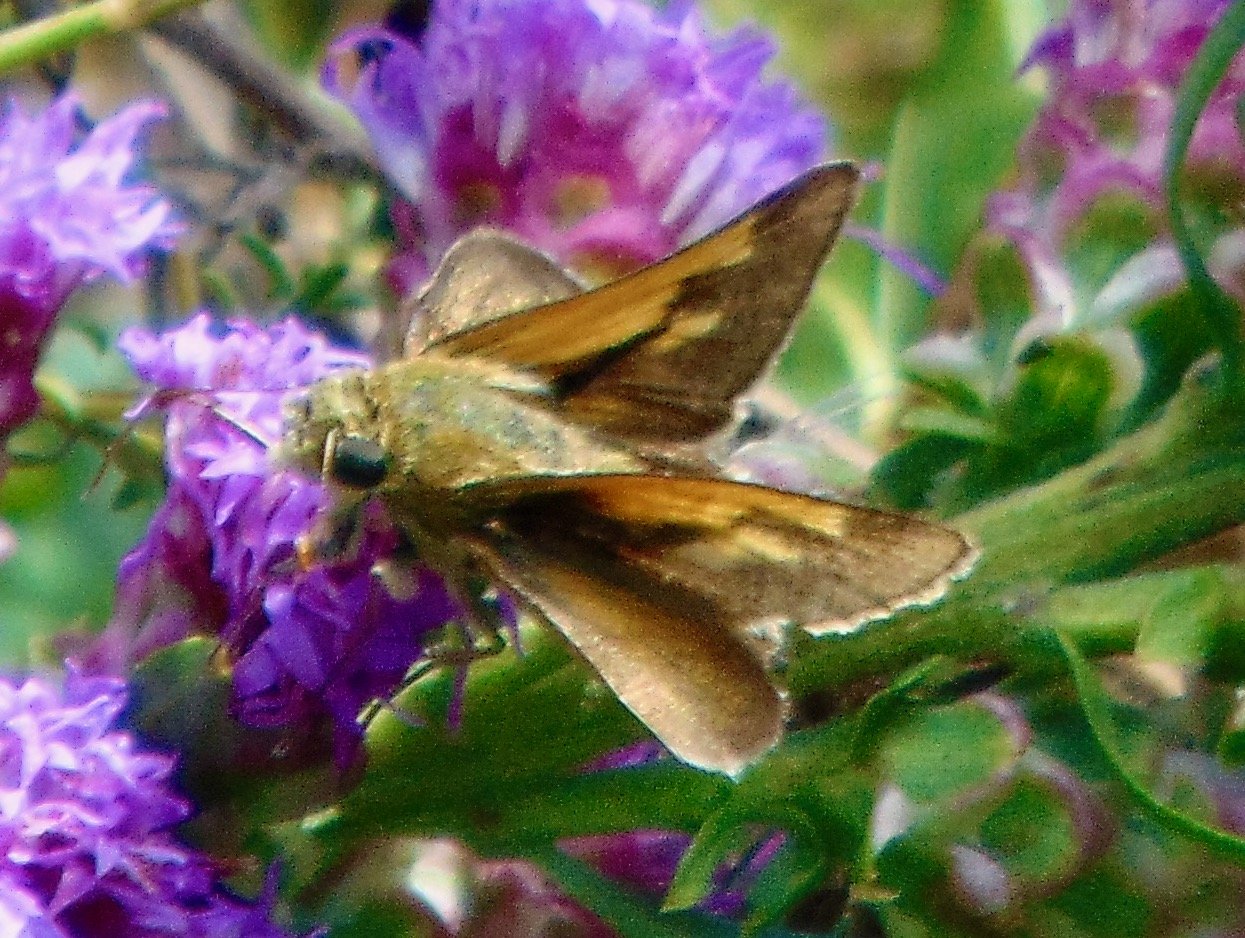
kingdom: Animalia
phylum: Arthropoda
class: Insecta
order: Lepidoptera
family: Hesperiidae
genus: Polites
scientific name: Polites themistocles
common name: Tawny-edged Skipper
